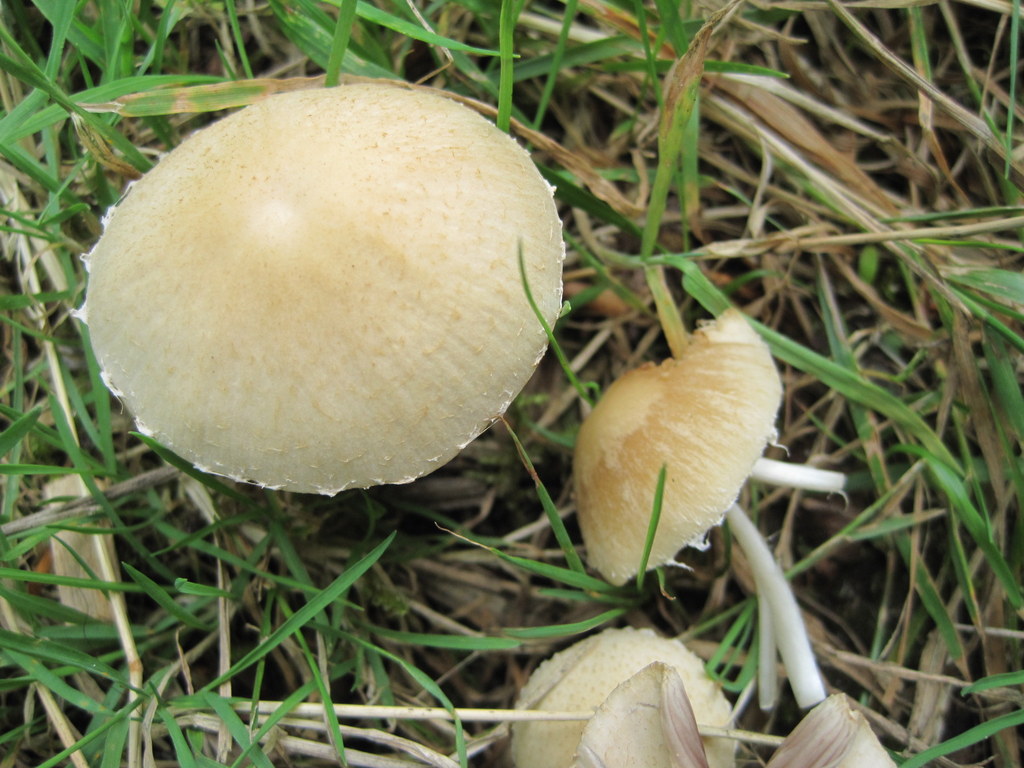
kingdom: Fungi
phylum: Basidiomycota
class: Agaricomycetes
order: Agaricales
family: Psathyrellaceae
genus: Candolleomyces
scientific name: Candolleomyces candolleanus
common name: Candolles mørkhat
